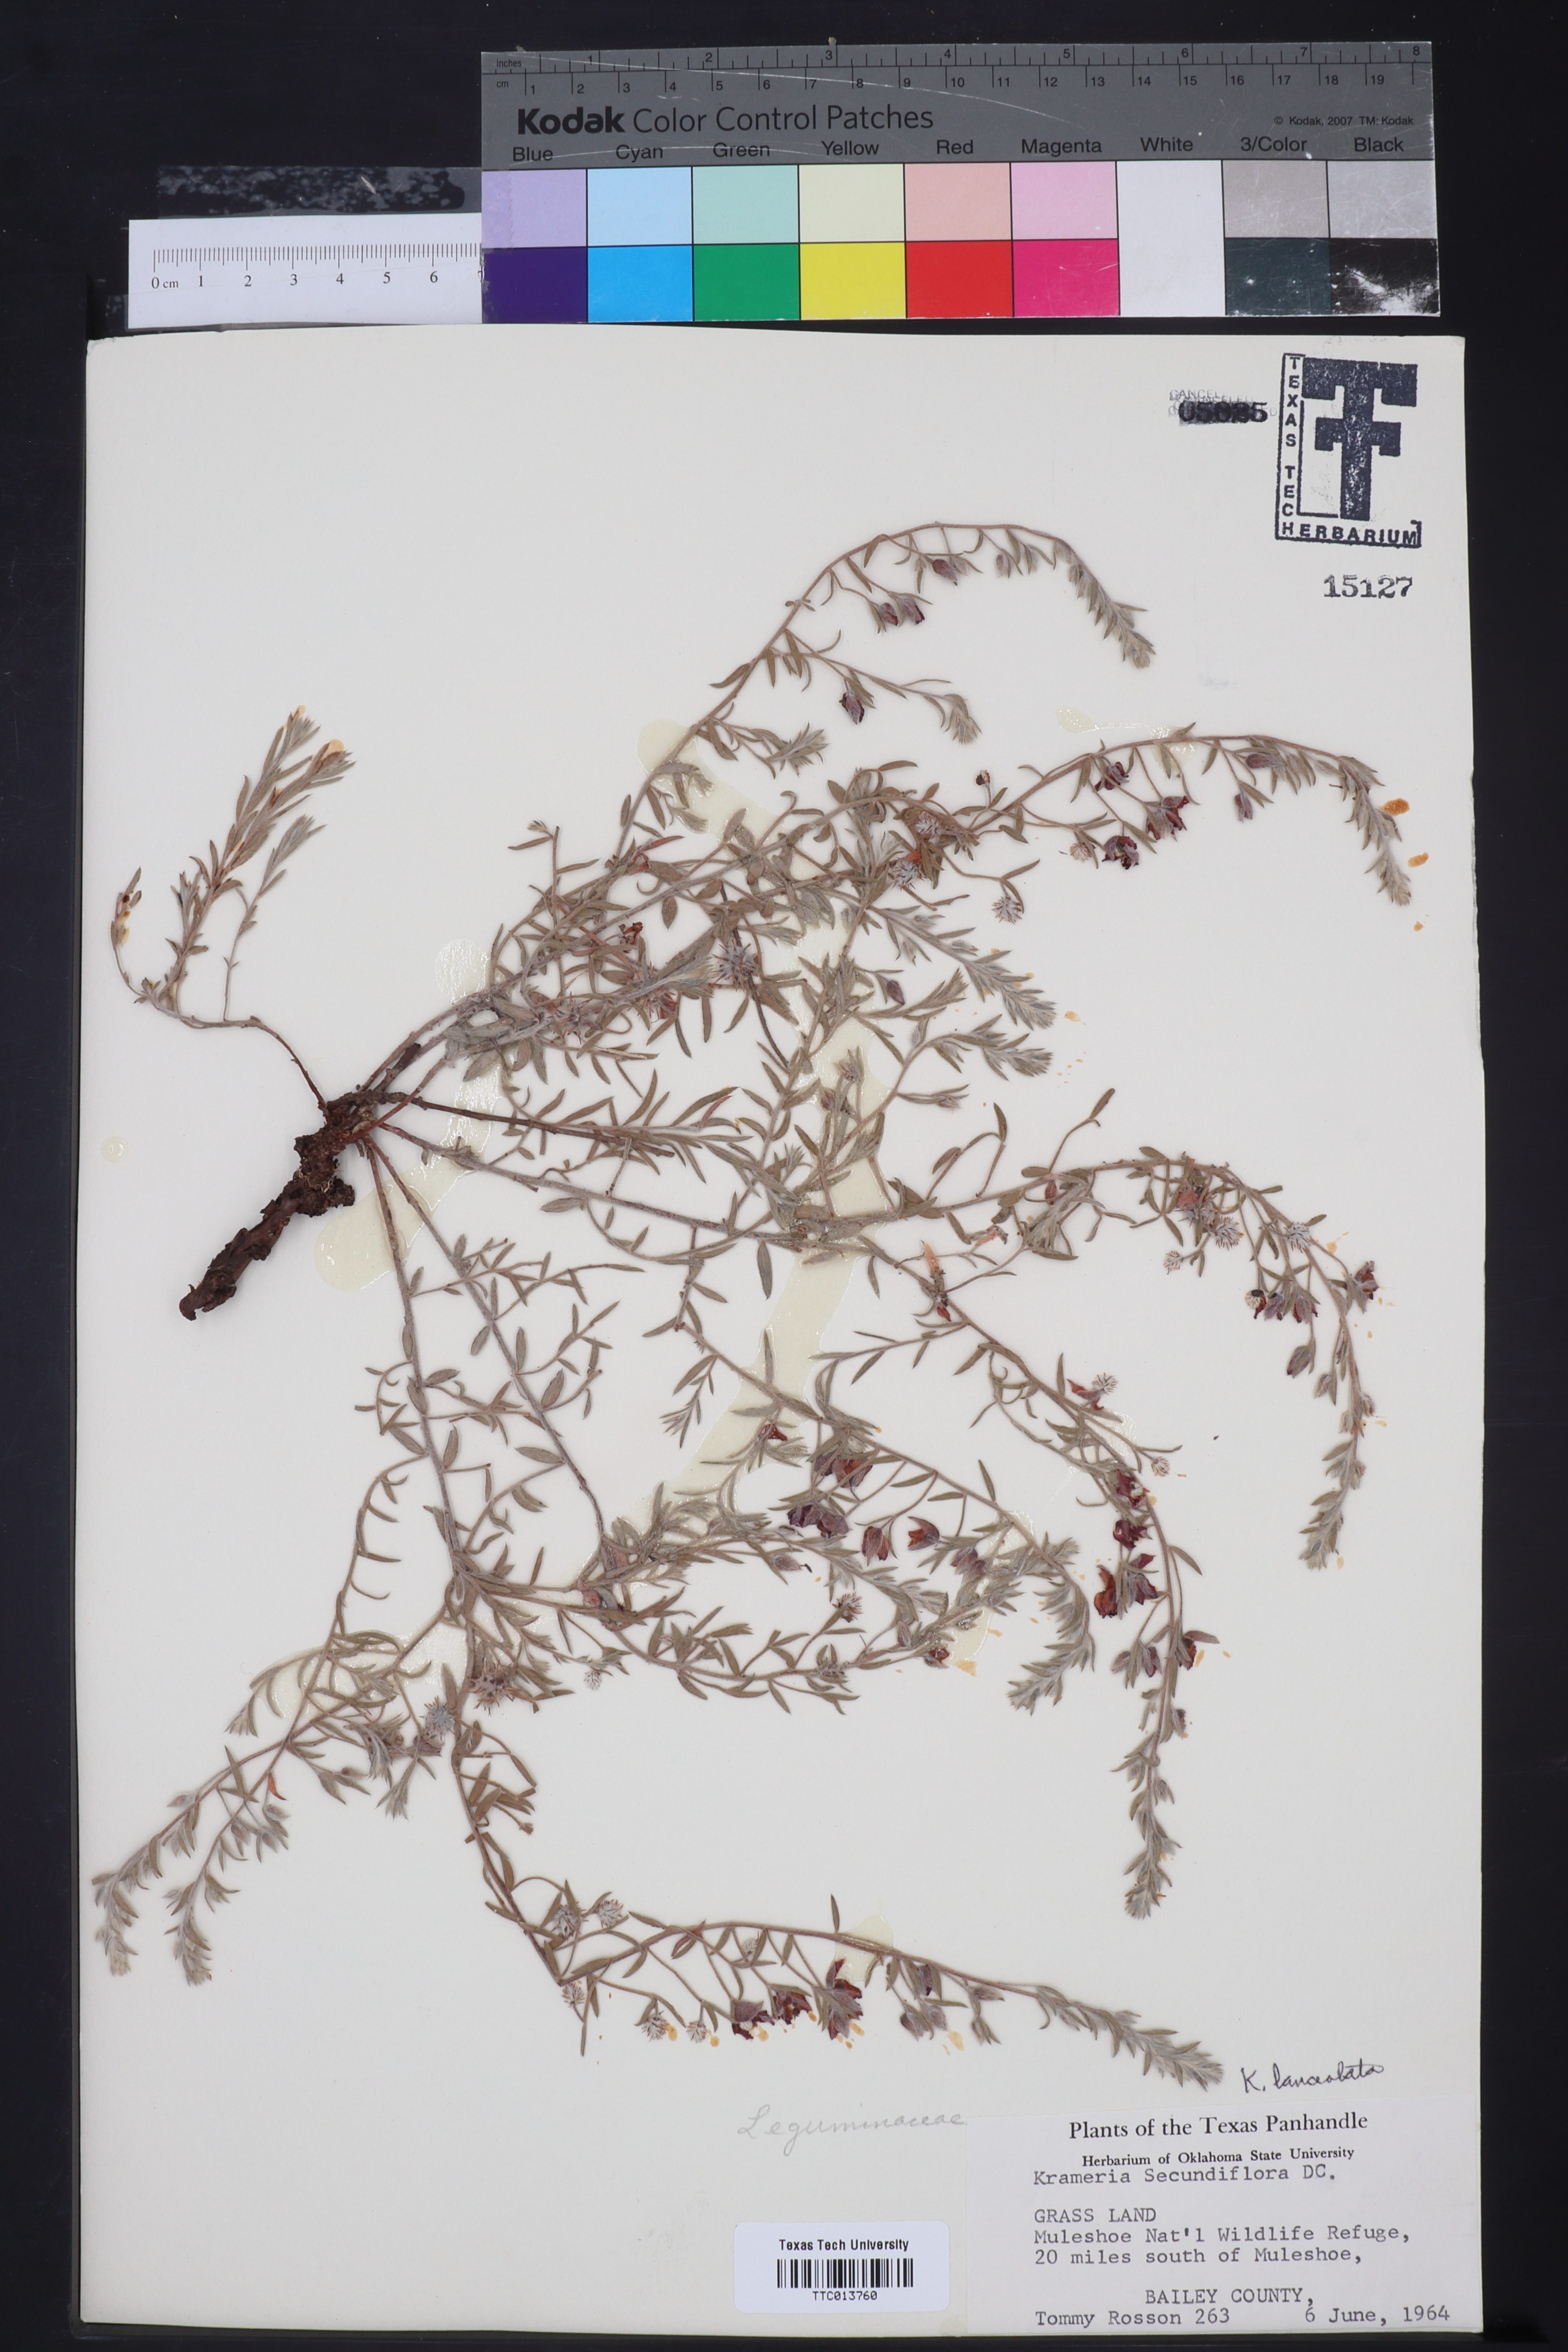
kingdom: Plantae
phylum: Tracheophyta
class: Magnoliopsida
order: Zygophyllales
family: Krameriaceae
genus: Krameria
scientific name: Krameria secundiflora
